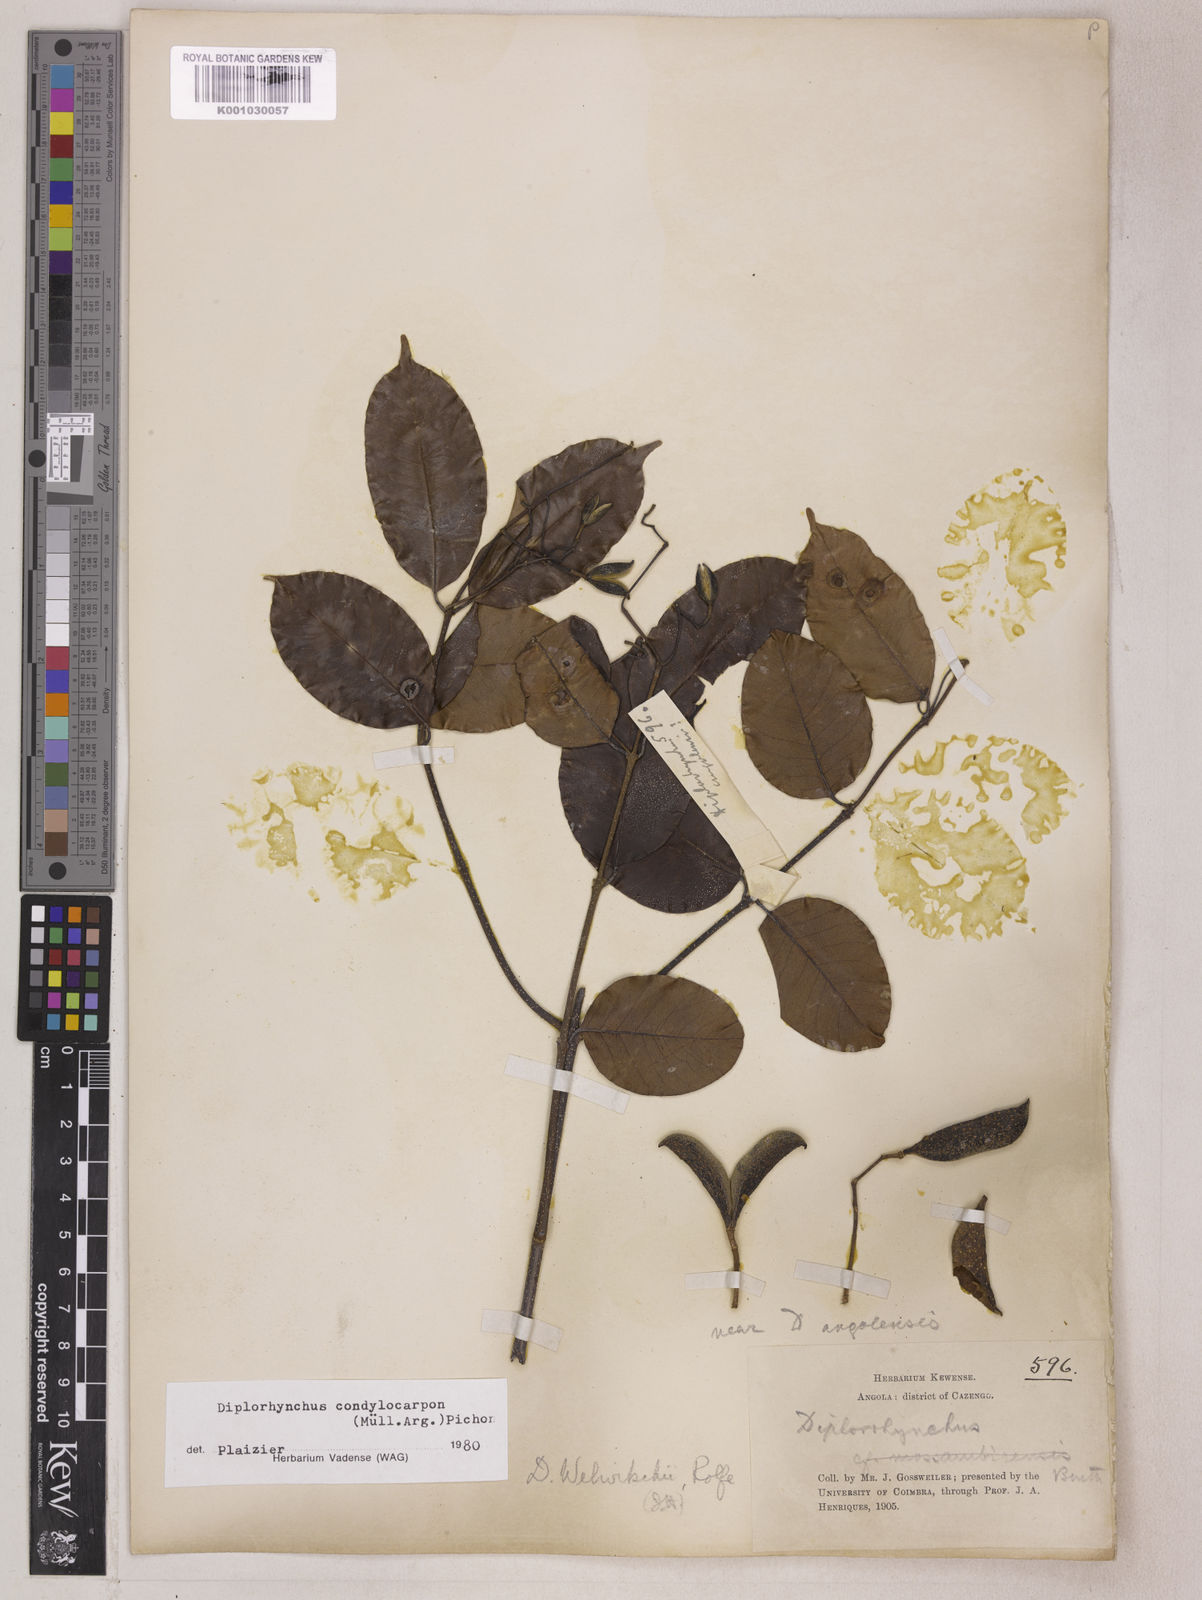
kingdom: Plantae
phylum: Tracheophyta
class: Magnoliopsida
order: Gentianales
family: Apocynaceae
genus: Diplorhynchus
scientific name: Diplorhynchus
